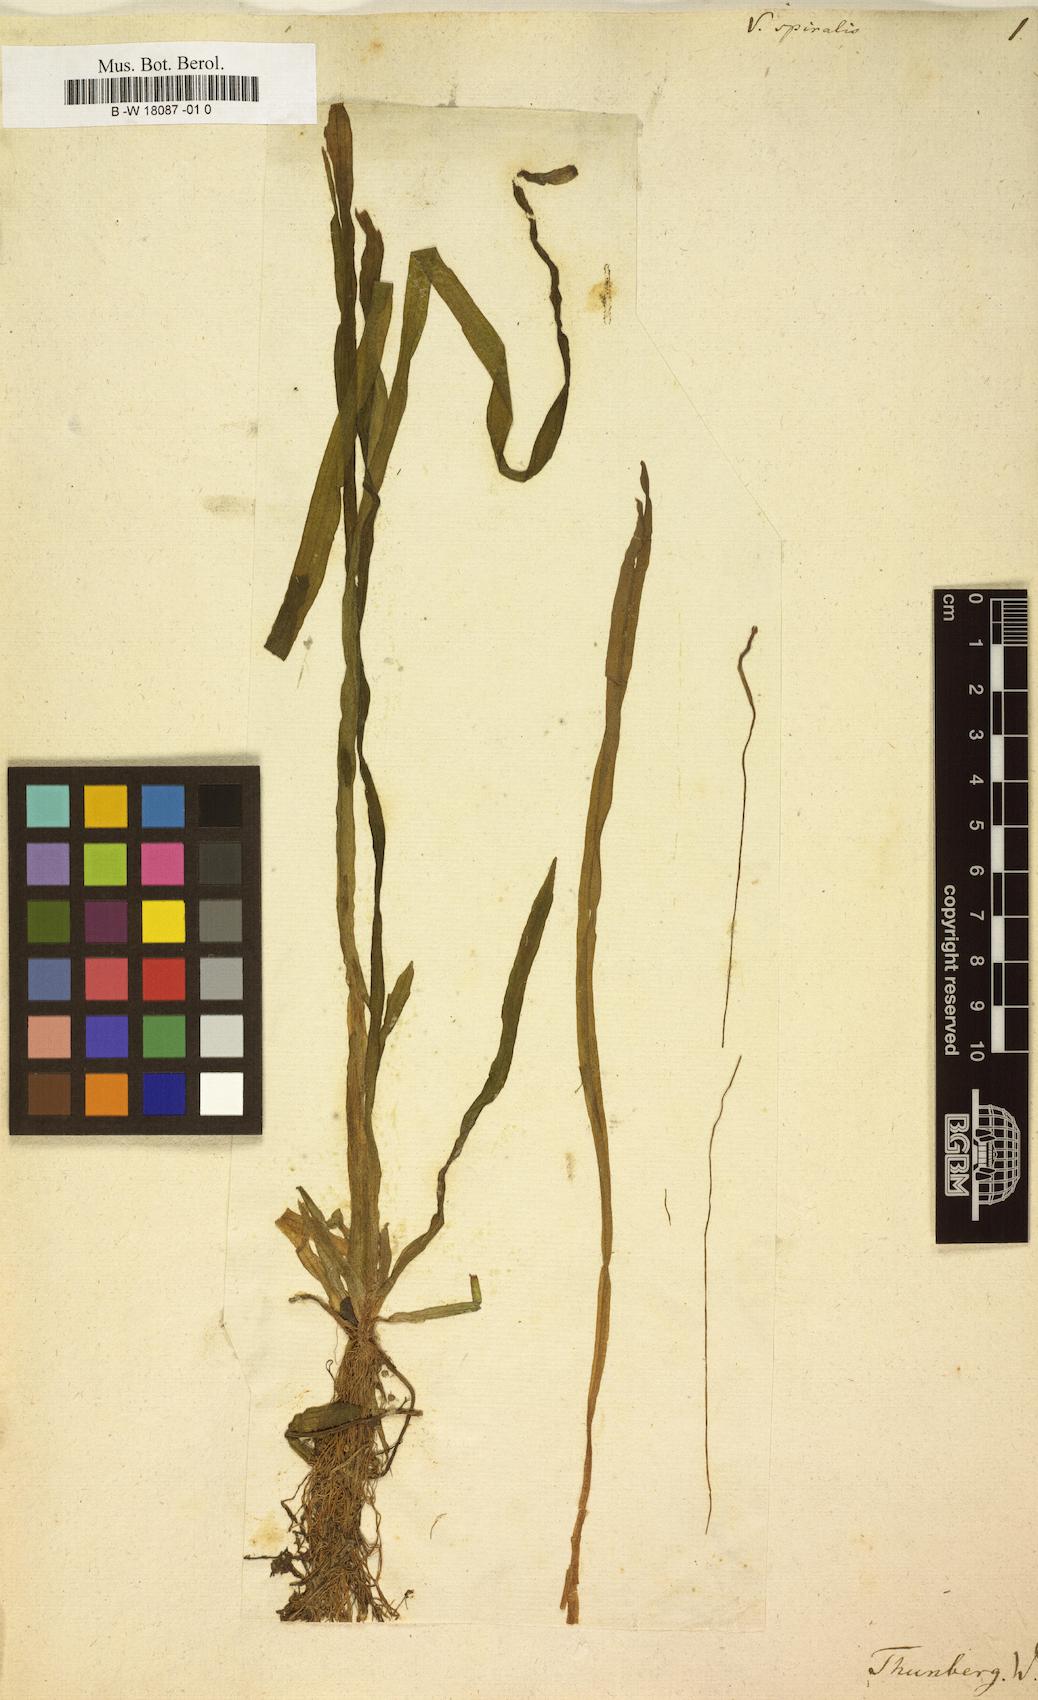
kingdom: Plantae
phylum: Tracheophyta
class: Liliopsida
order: Alismatales
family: Hydrocharitaceae
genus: Vallisneria
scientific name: Vallisneria spiralis
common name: Tapegrass
